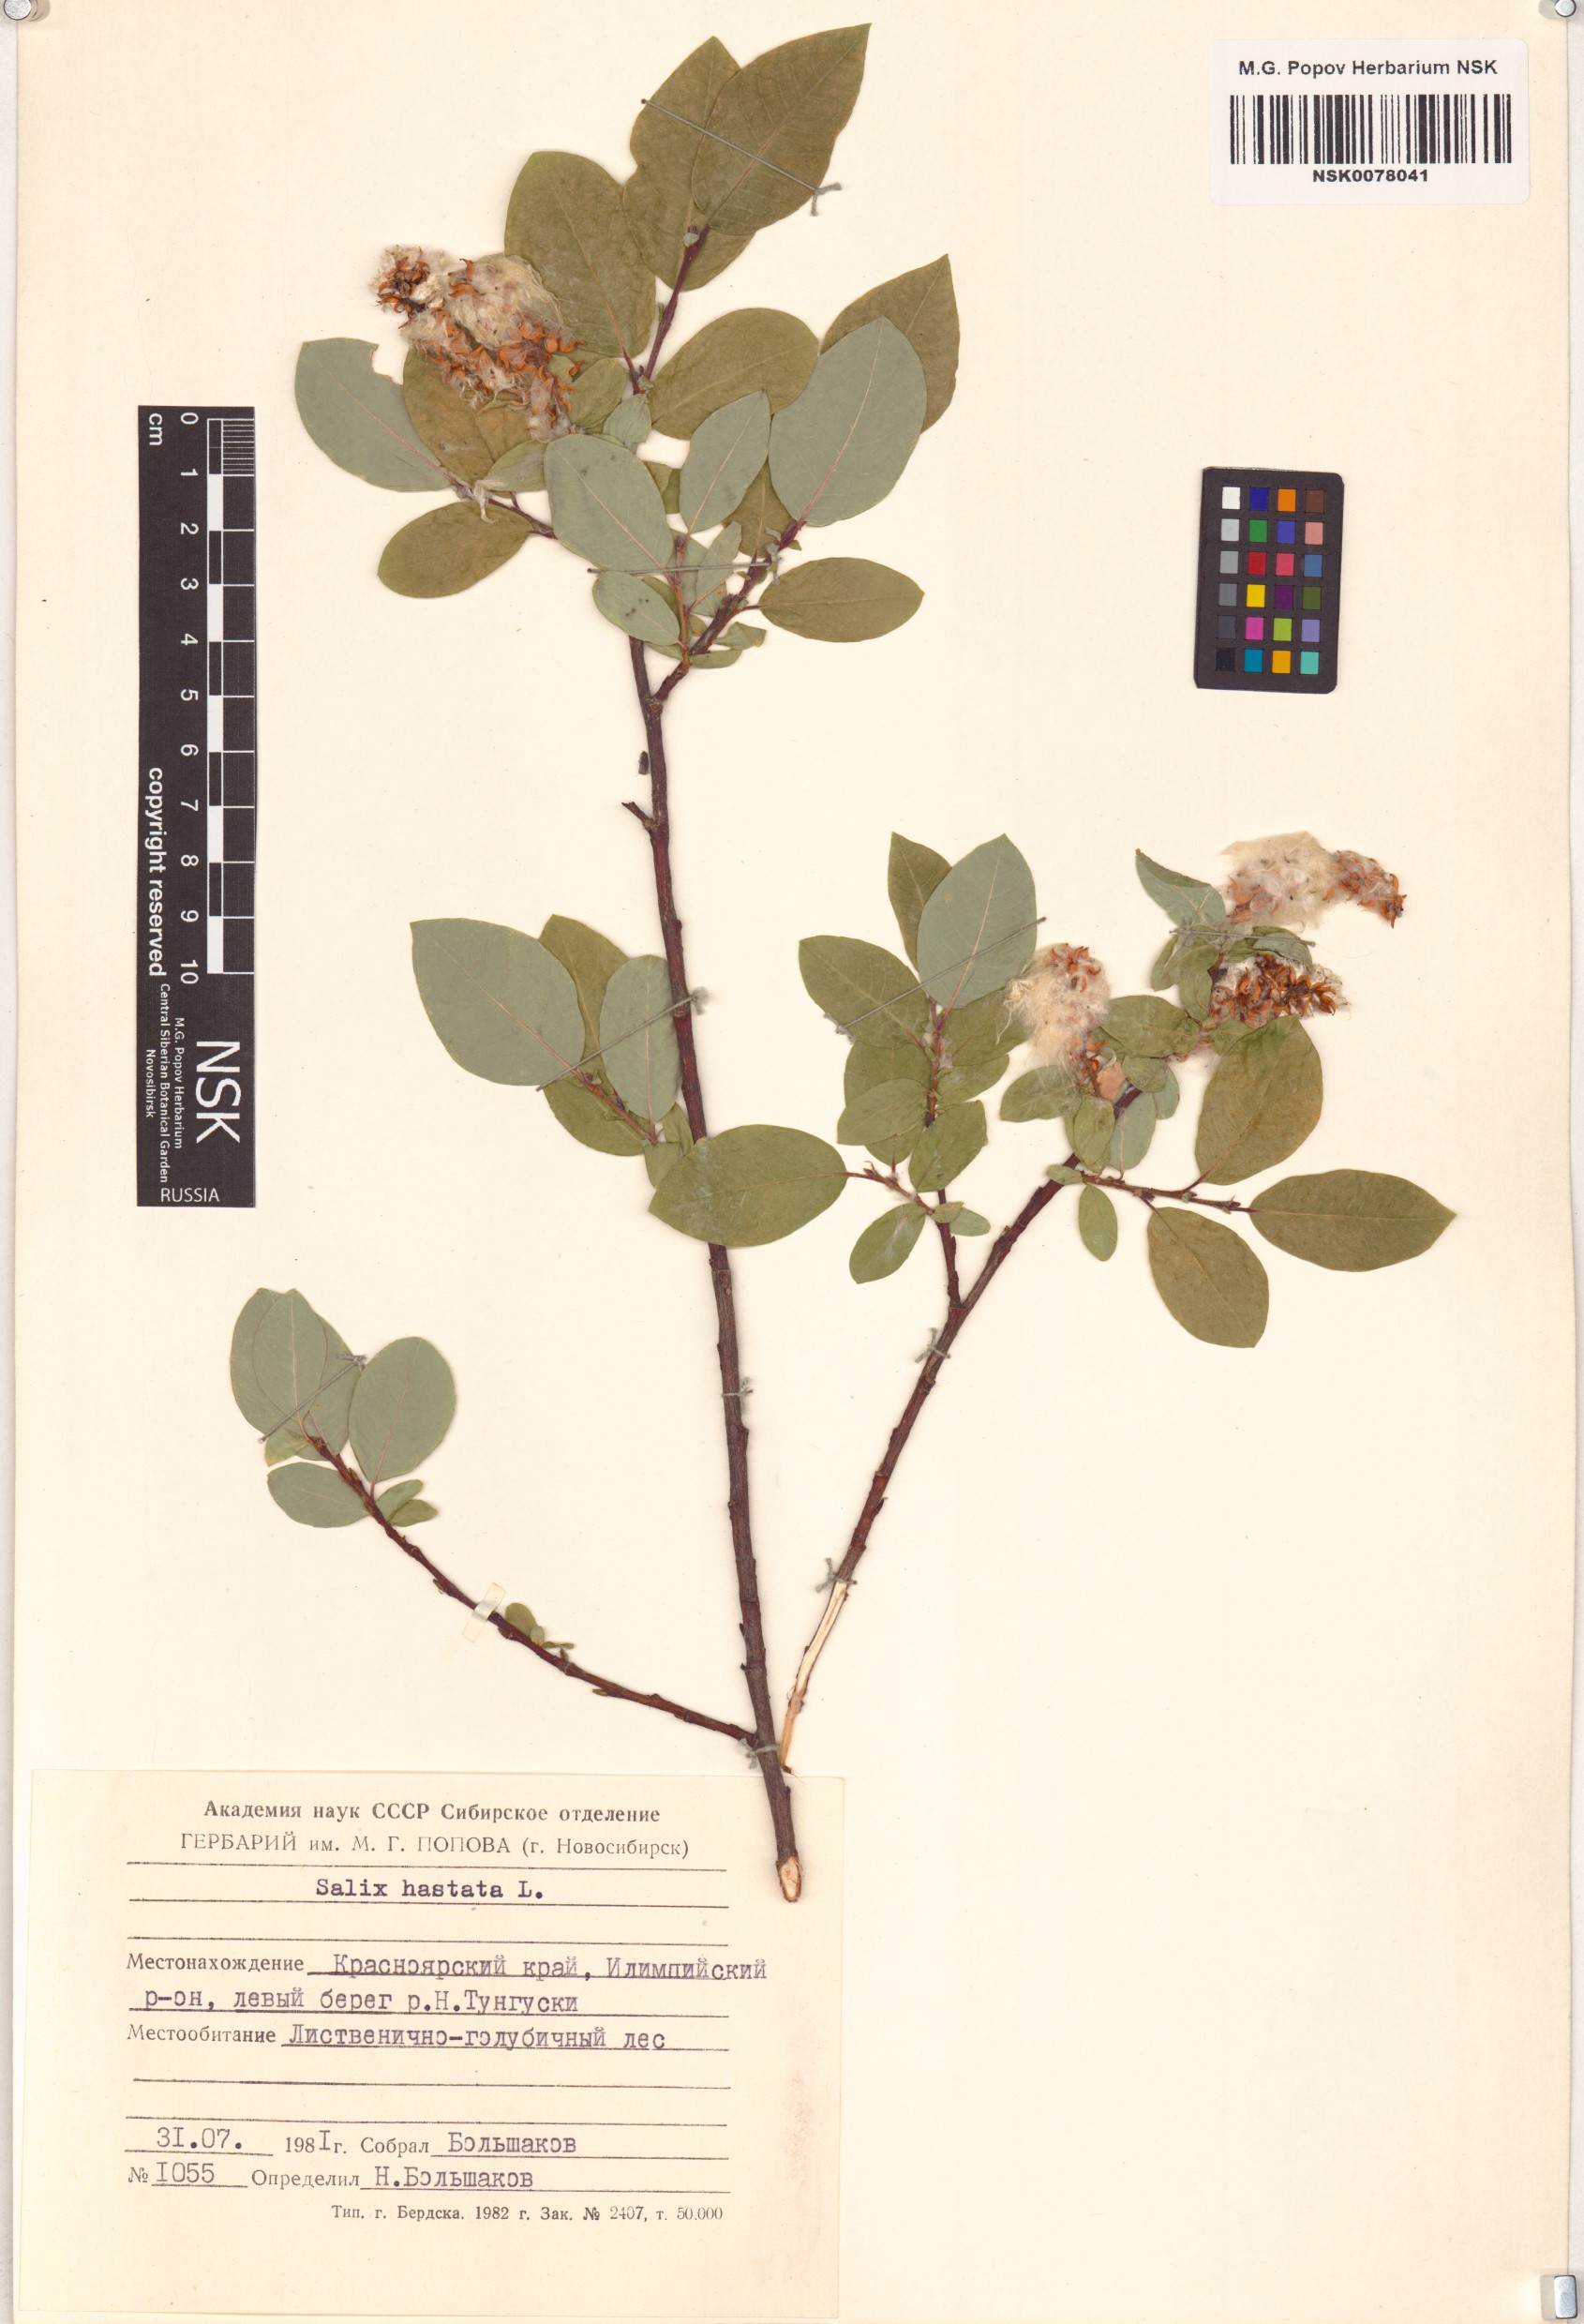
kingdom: Plantae
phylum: Tracheophyta
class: Magnoliopsida
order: Malpighiales
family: Salicaceae
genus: Salix
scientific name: Salix hastata
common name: Halberd willow
